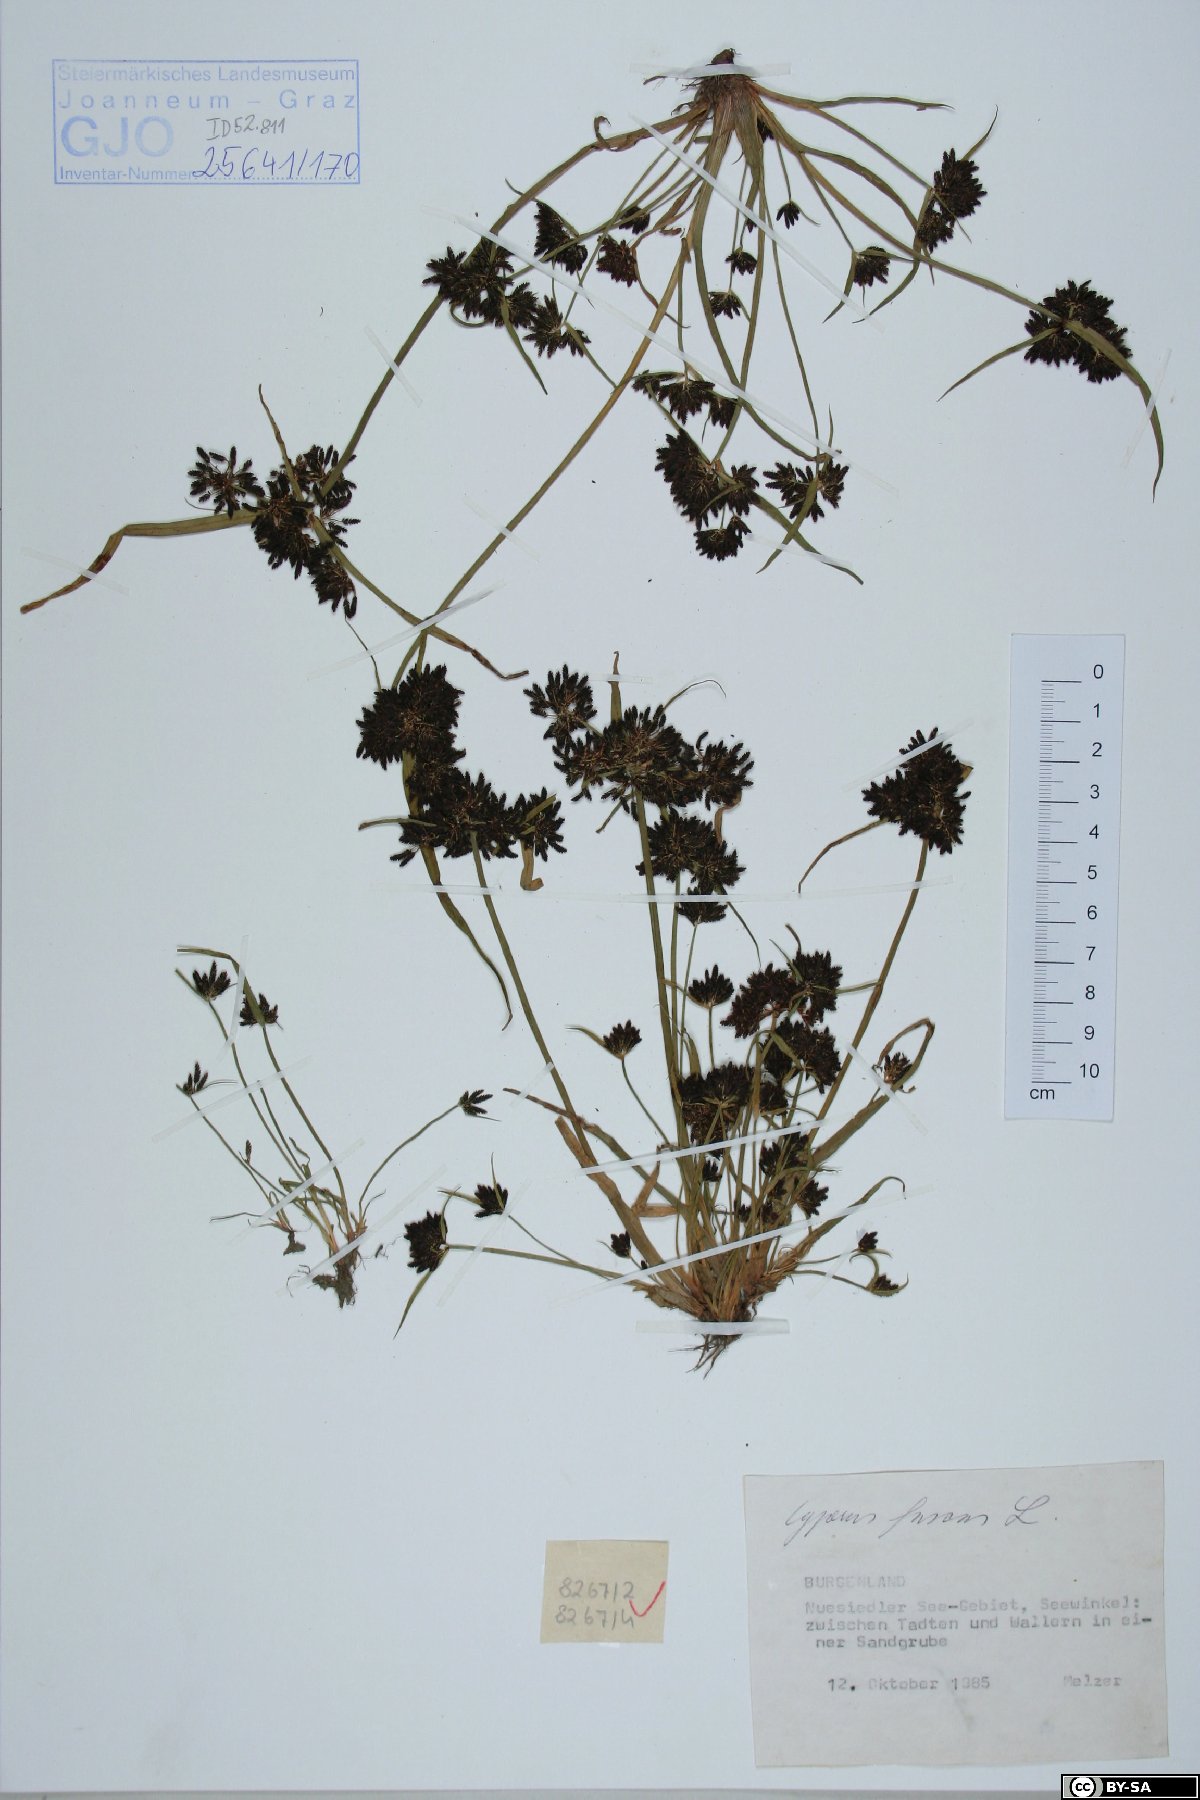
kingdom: Plantae
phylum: Tracheophyta
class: Liliopsida
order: Poales
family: Cyperaceae
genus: Cyperus
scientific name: Cyperus fuscus
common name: Brown galingale
